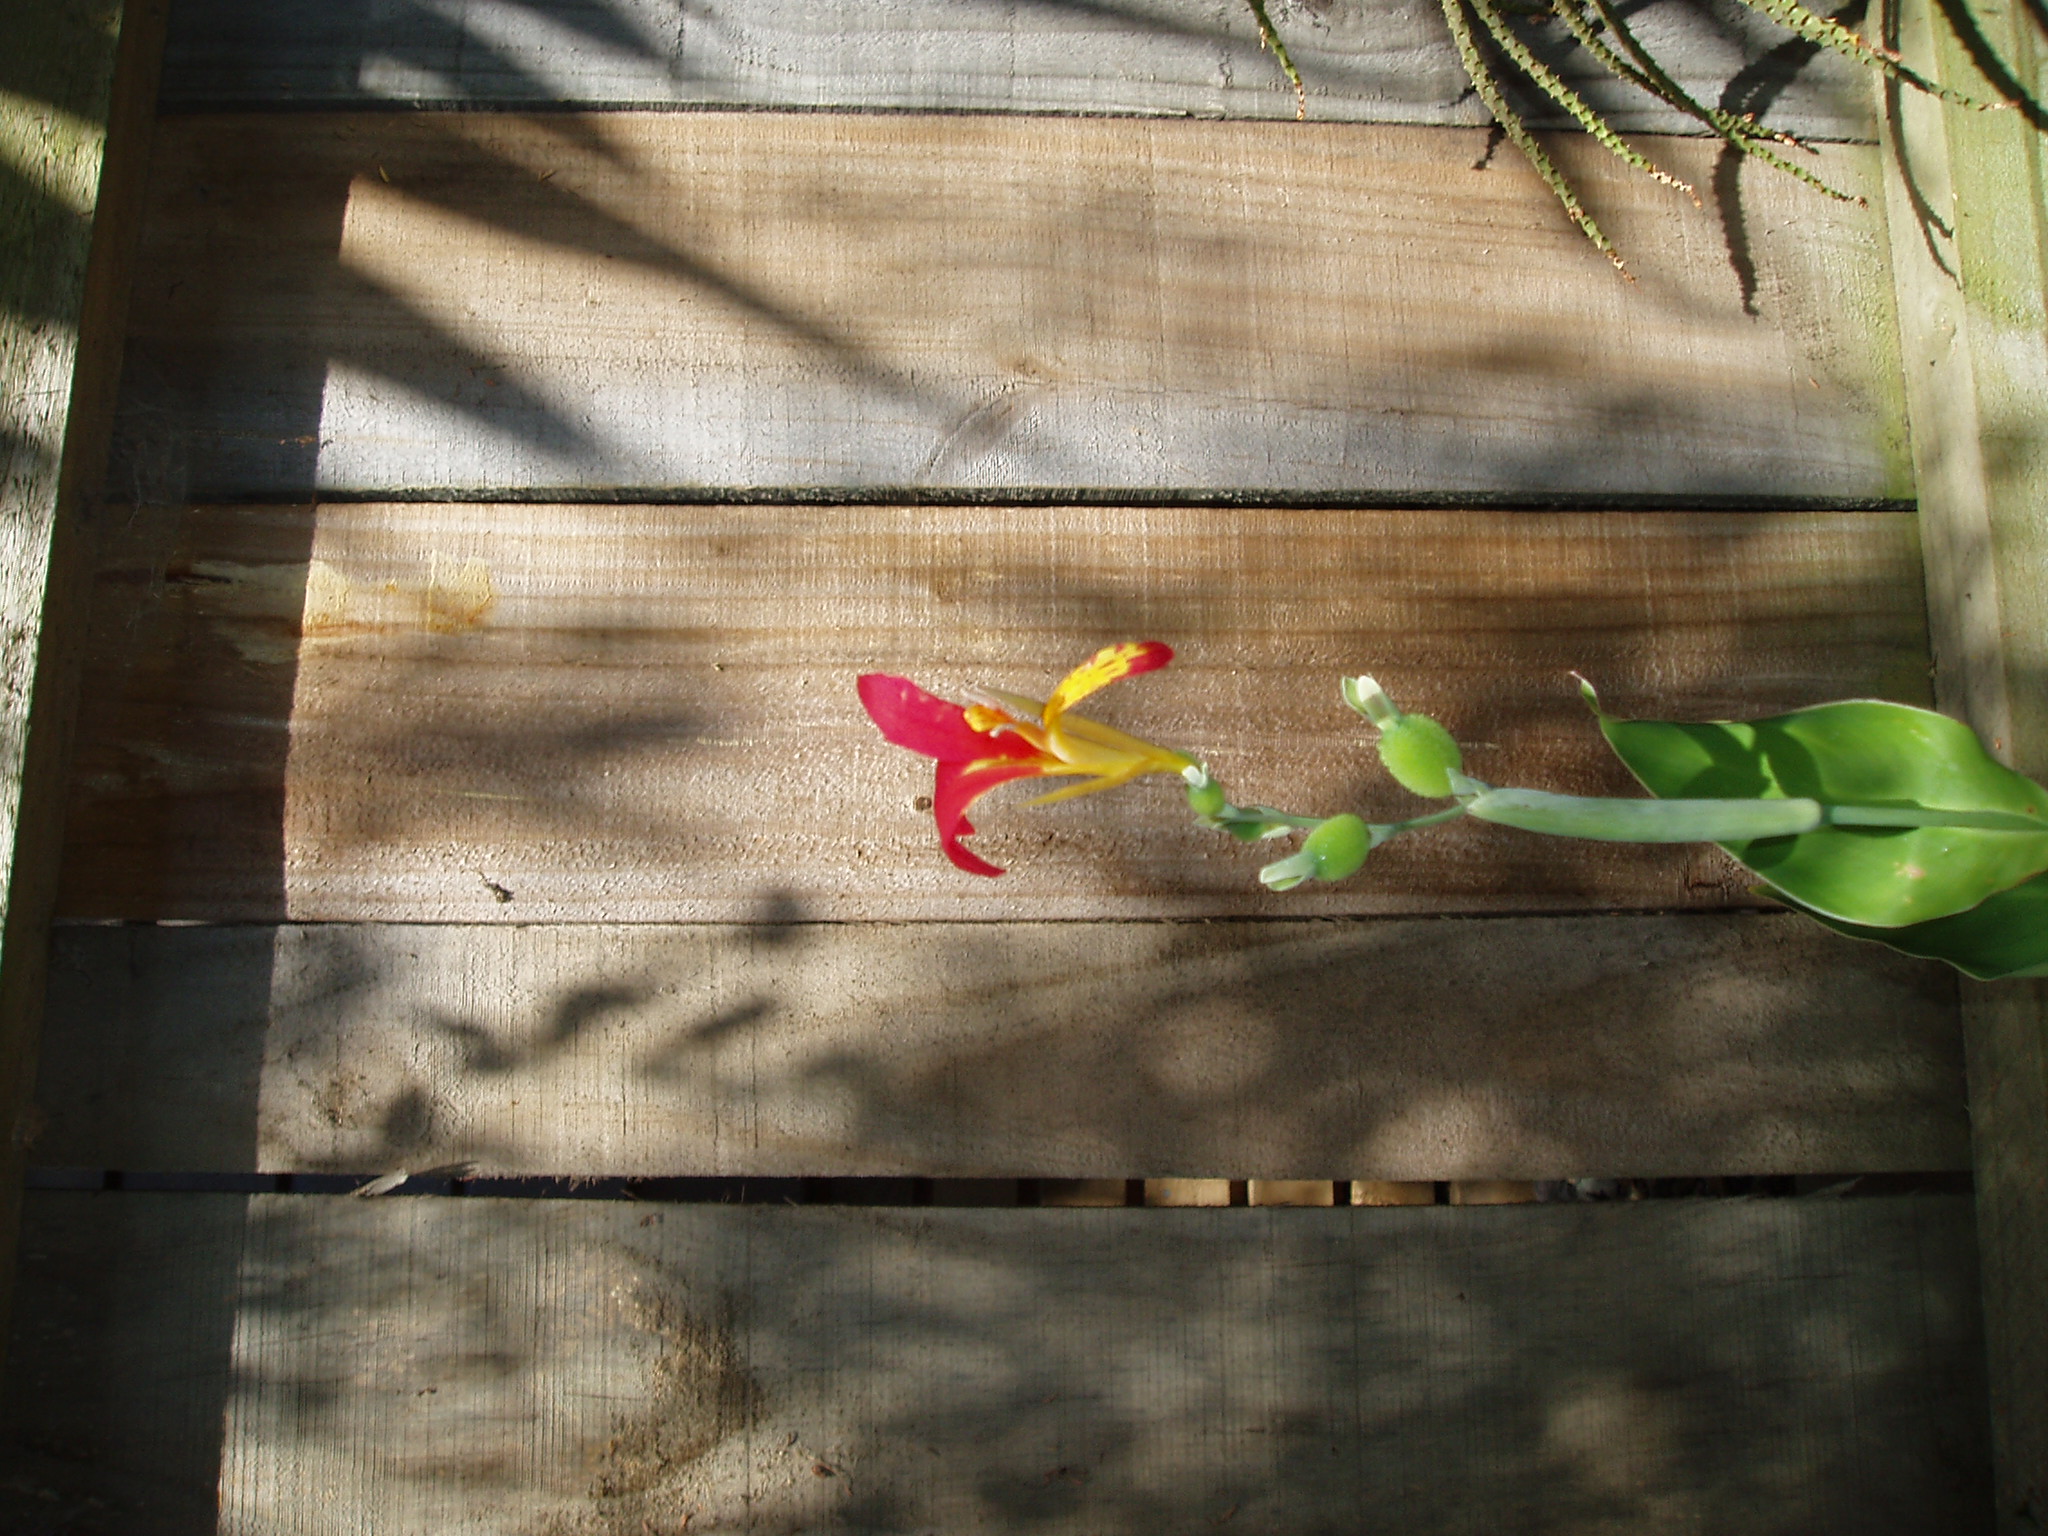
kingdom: Plantae
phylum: Tracheophyta
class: Liliopsida
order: Zingiberales
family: Cannaceae
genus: Canna
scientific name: Canna indica
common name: Indian shot
